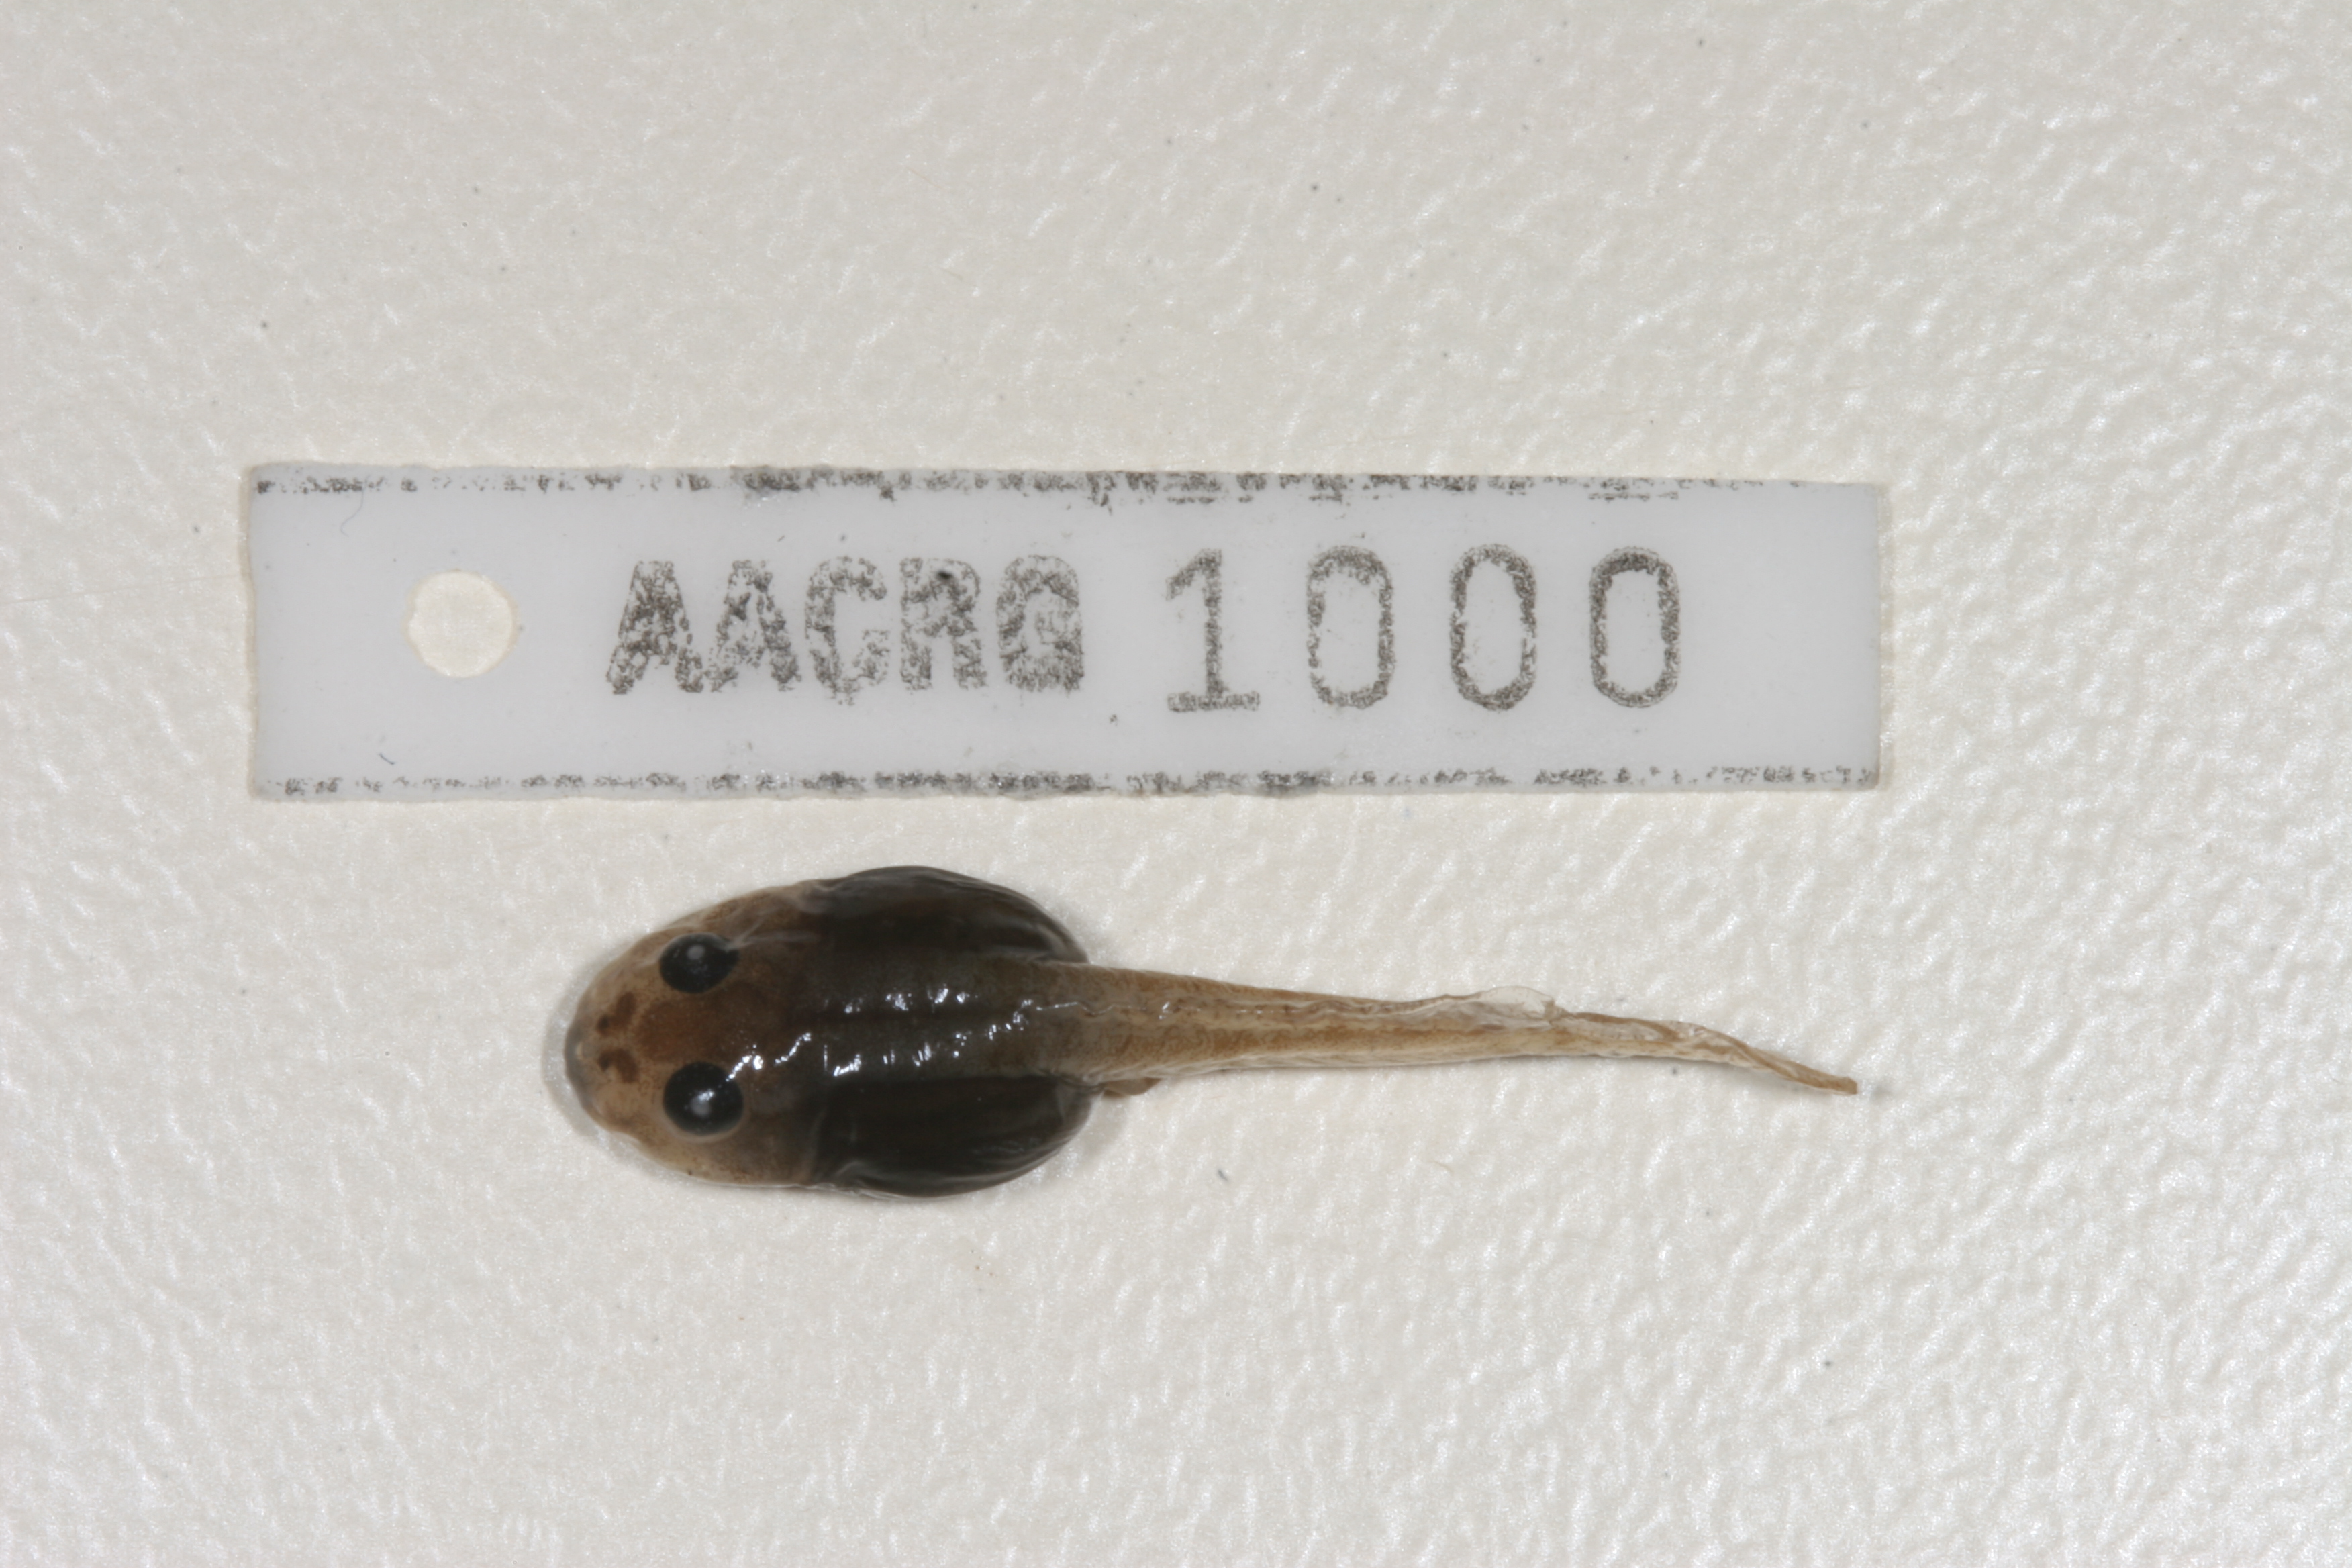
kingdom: Animalia
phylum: Chordata
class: Amphibia
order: Anura
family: Pyxicephalidae
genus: Amietia
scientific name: Amietia angolensis
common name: Dusky-throated frog
